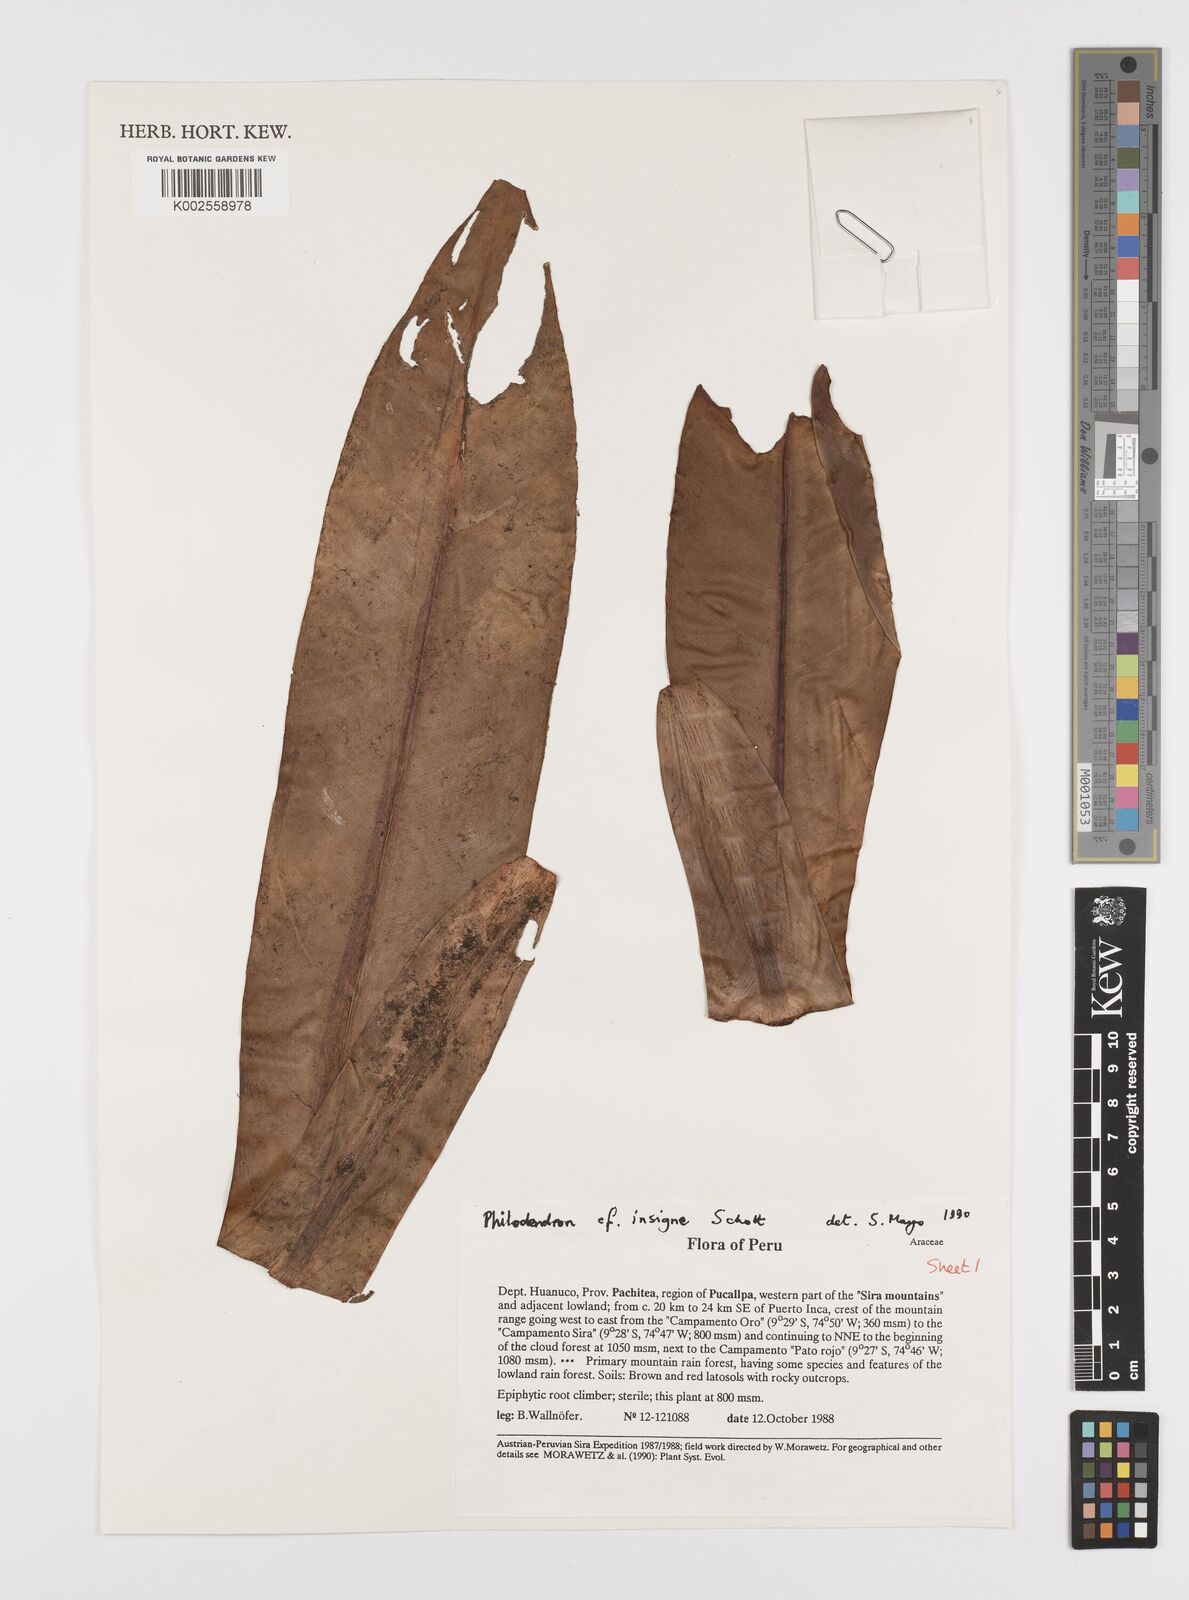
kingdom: Plantae
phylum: Tracheophyta
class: Liliopsida
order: Alismatales
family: Araceae
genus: Philodendron
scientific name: Philodendron insigne
